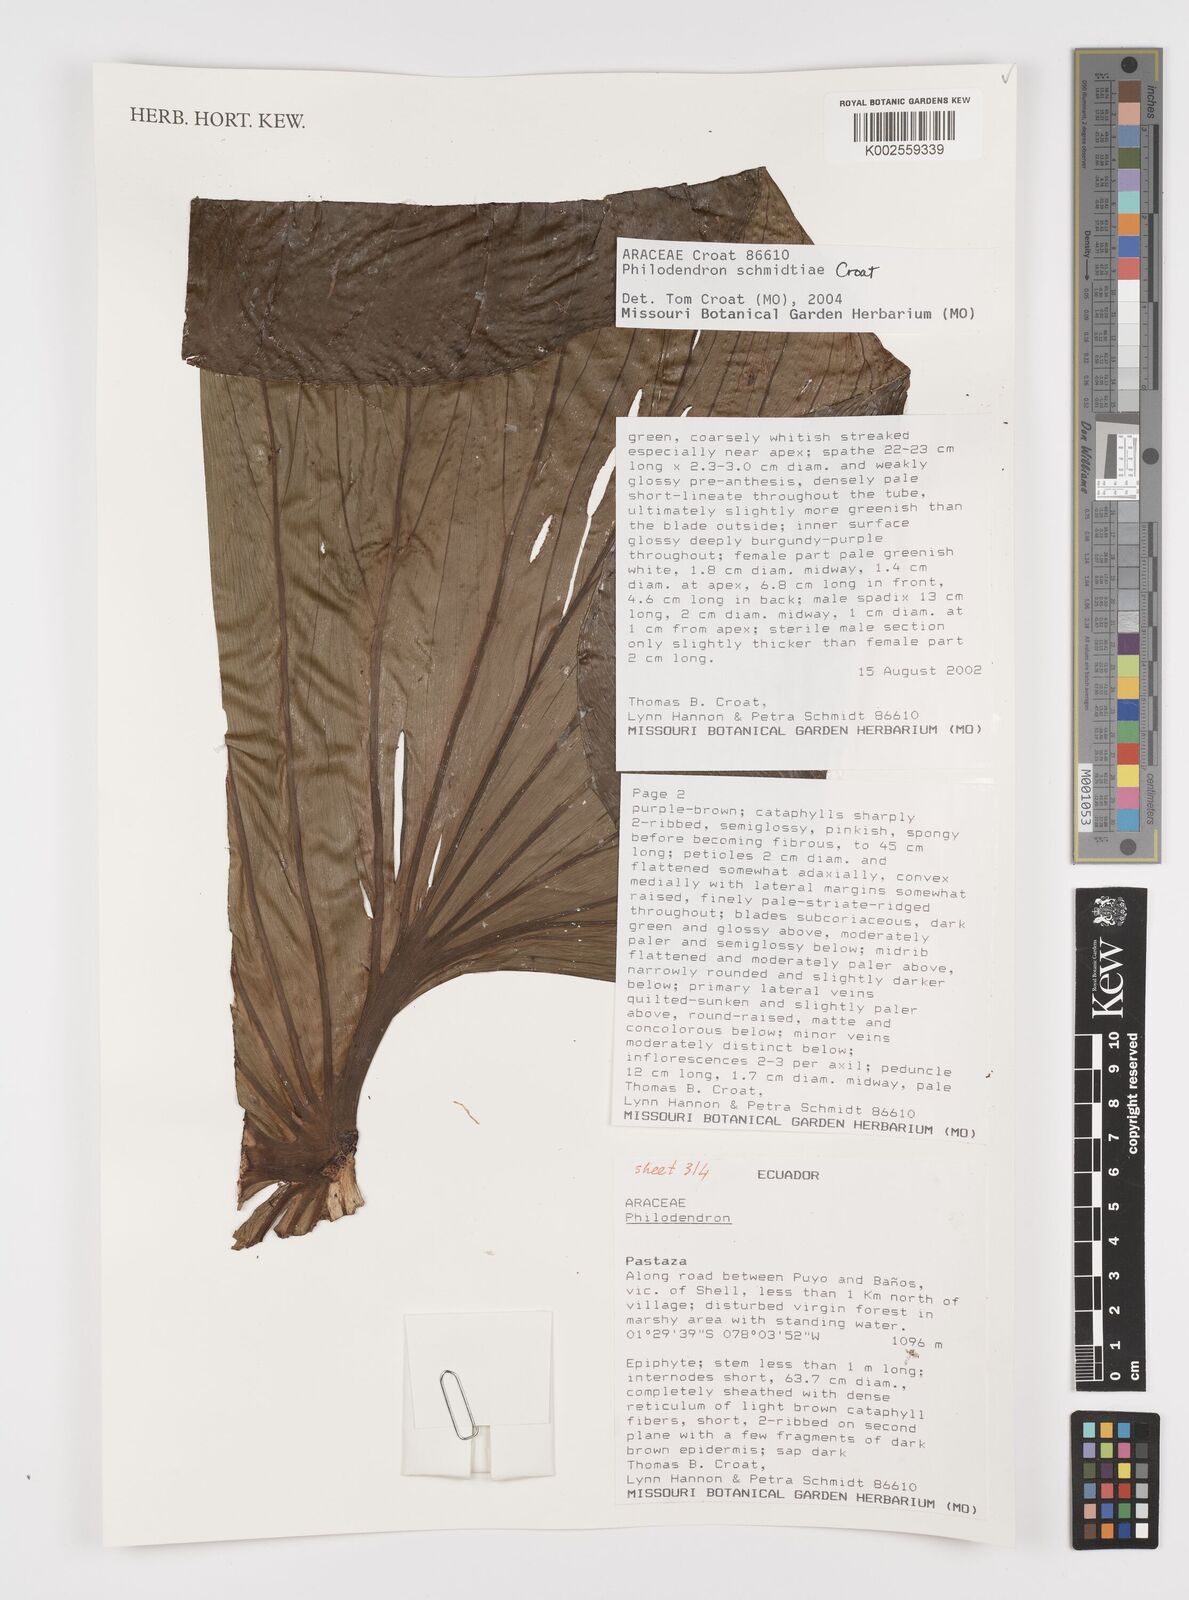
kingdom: Plantae
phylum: Tracheophyta
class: Liliopsida
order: Alismatales
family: Araceae
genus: Philodendron
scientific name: Philodendron schmidtiae
